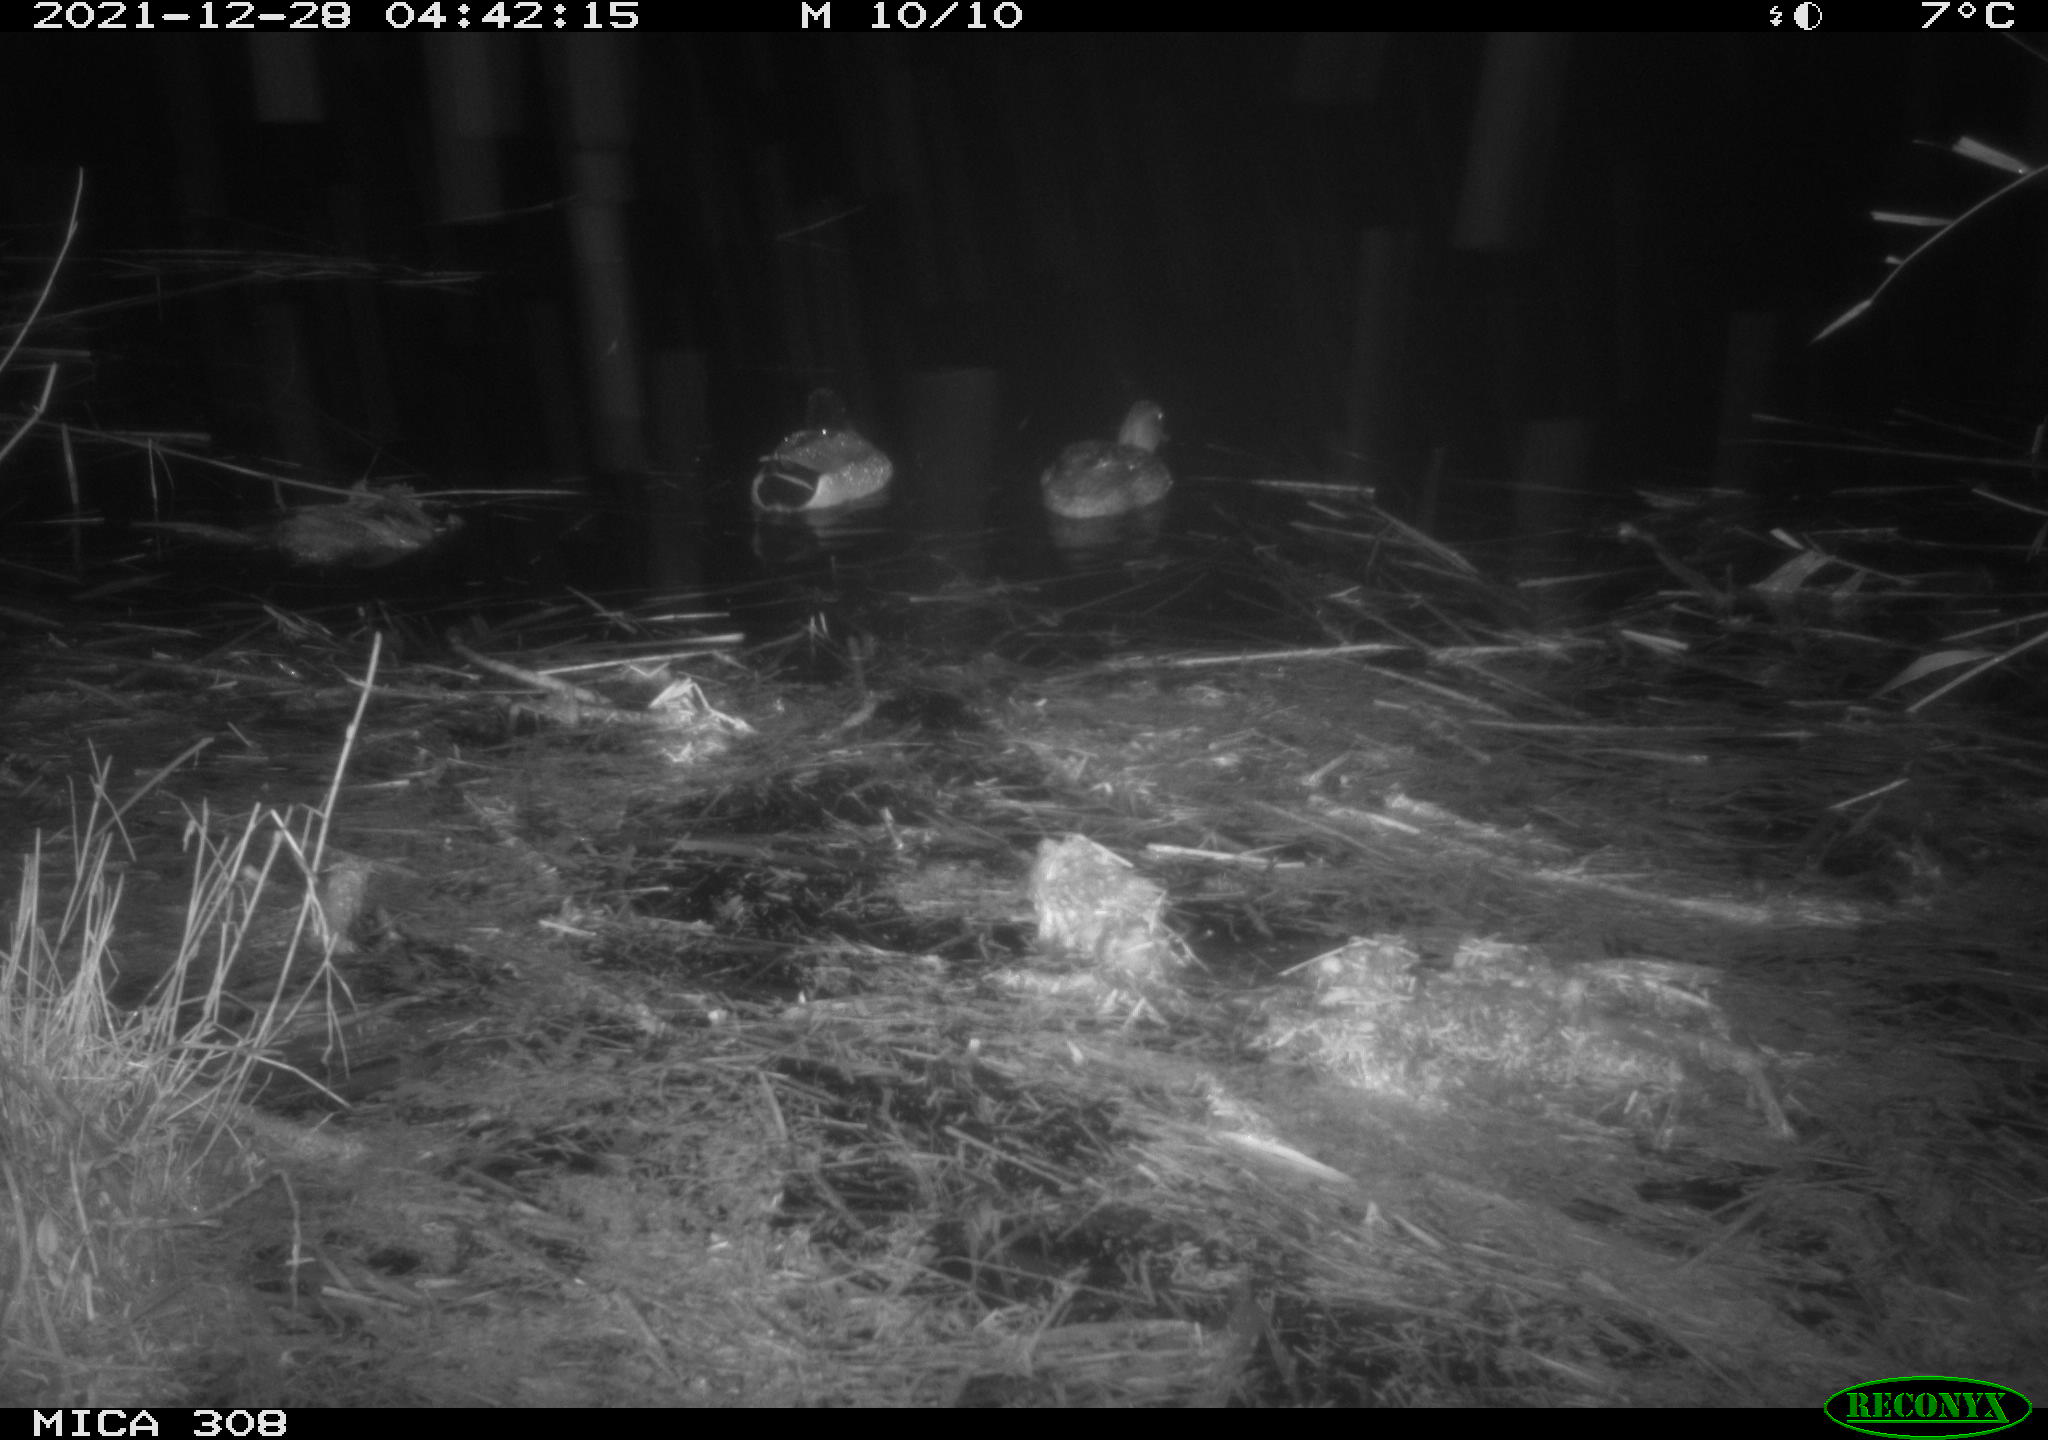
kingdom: Animalia
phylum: Chordata
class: Aves
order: Anseriformes
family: Anatidae
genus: Anas
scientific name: Anas platyrhynchos
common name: Mallard
